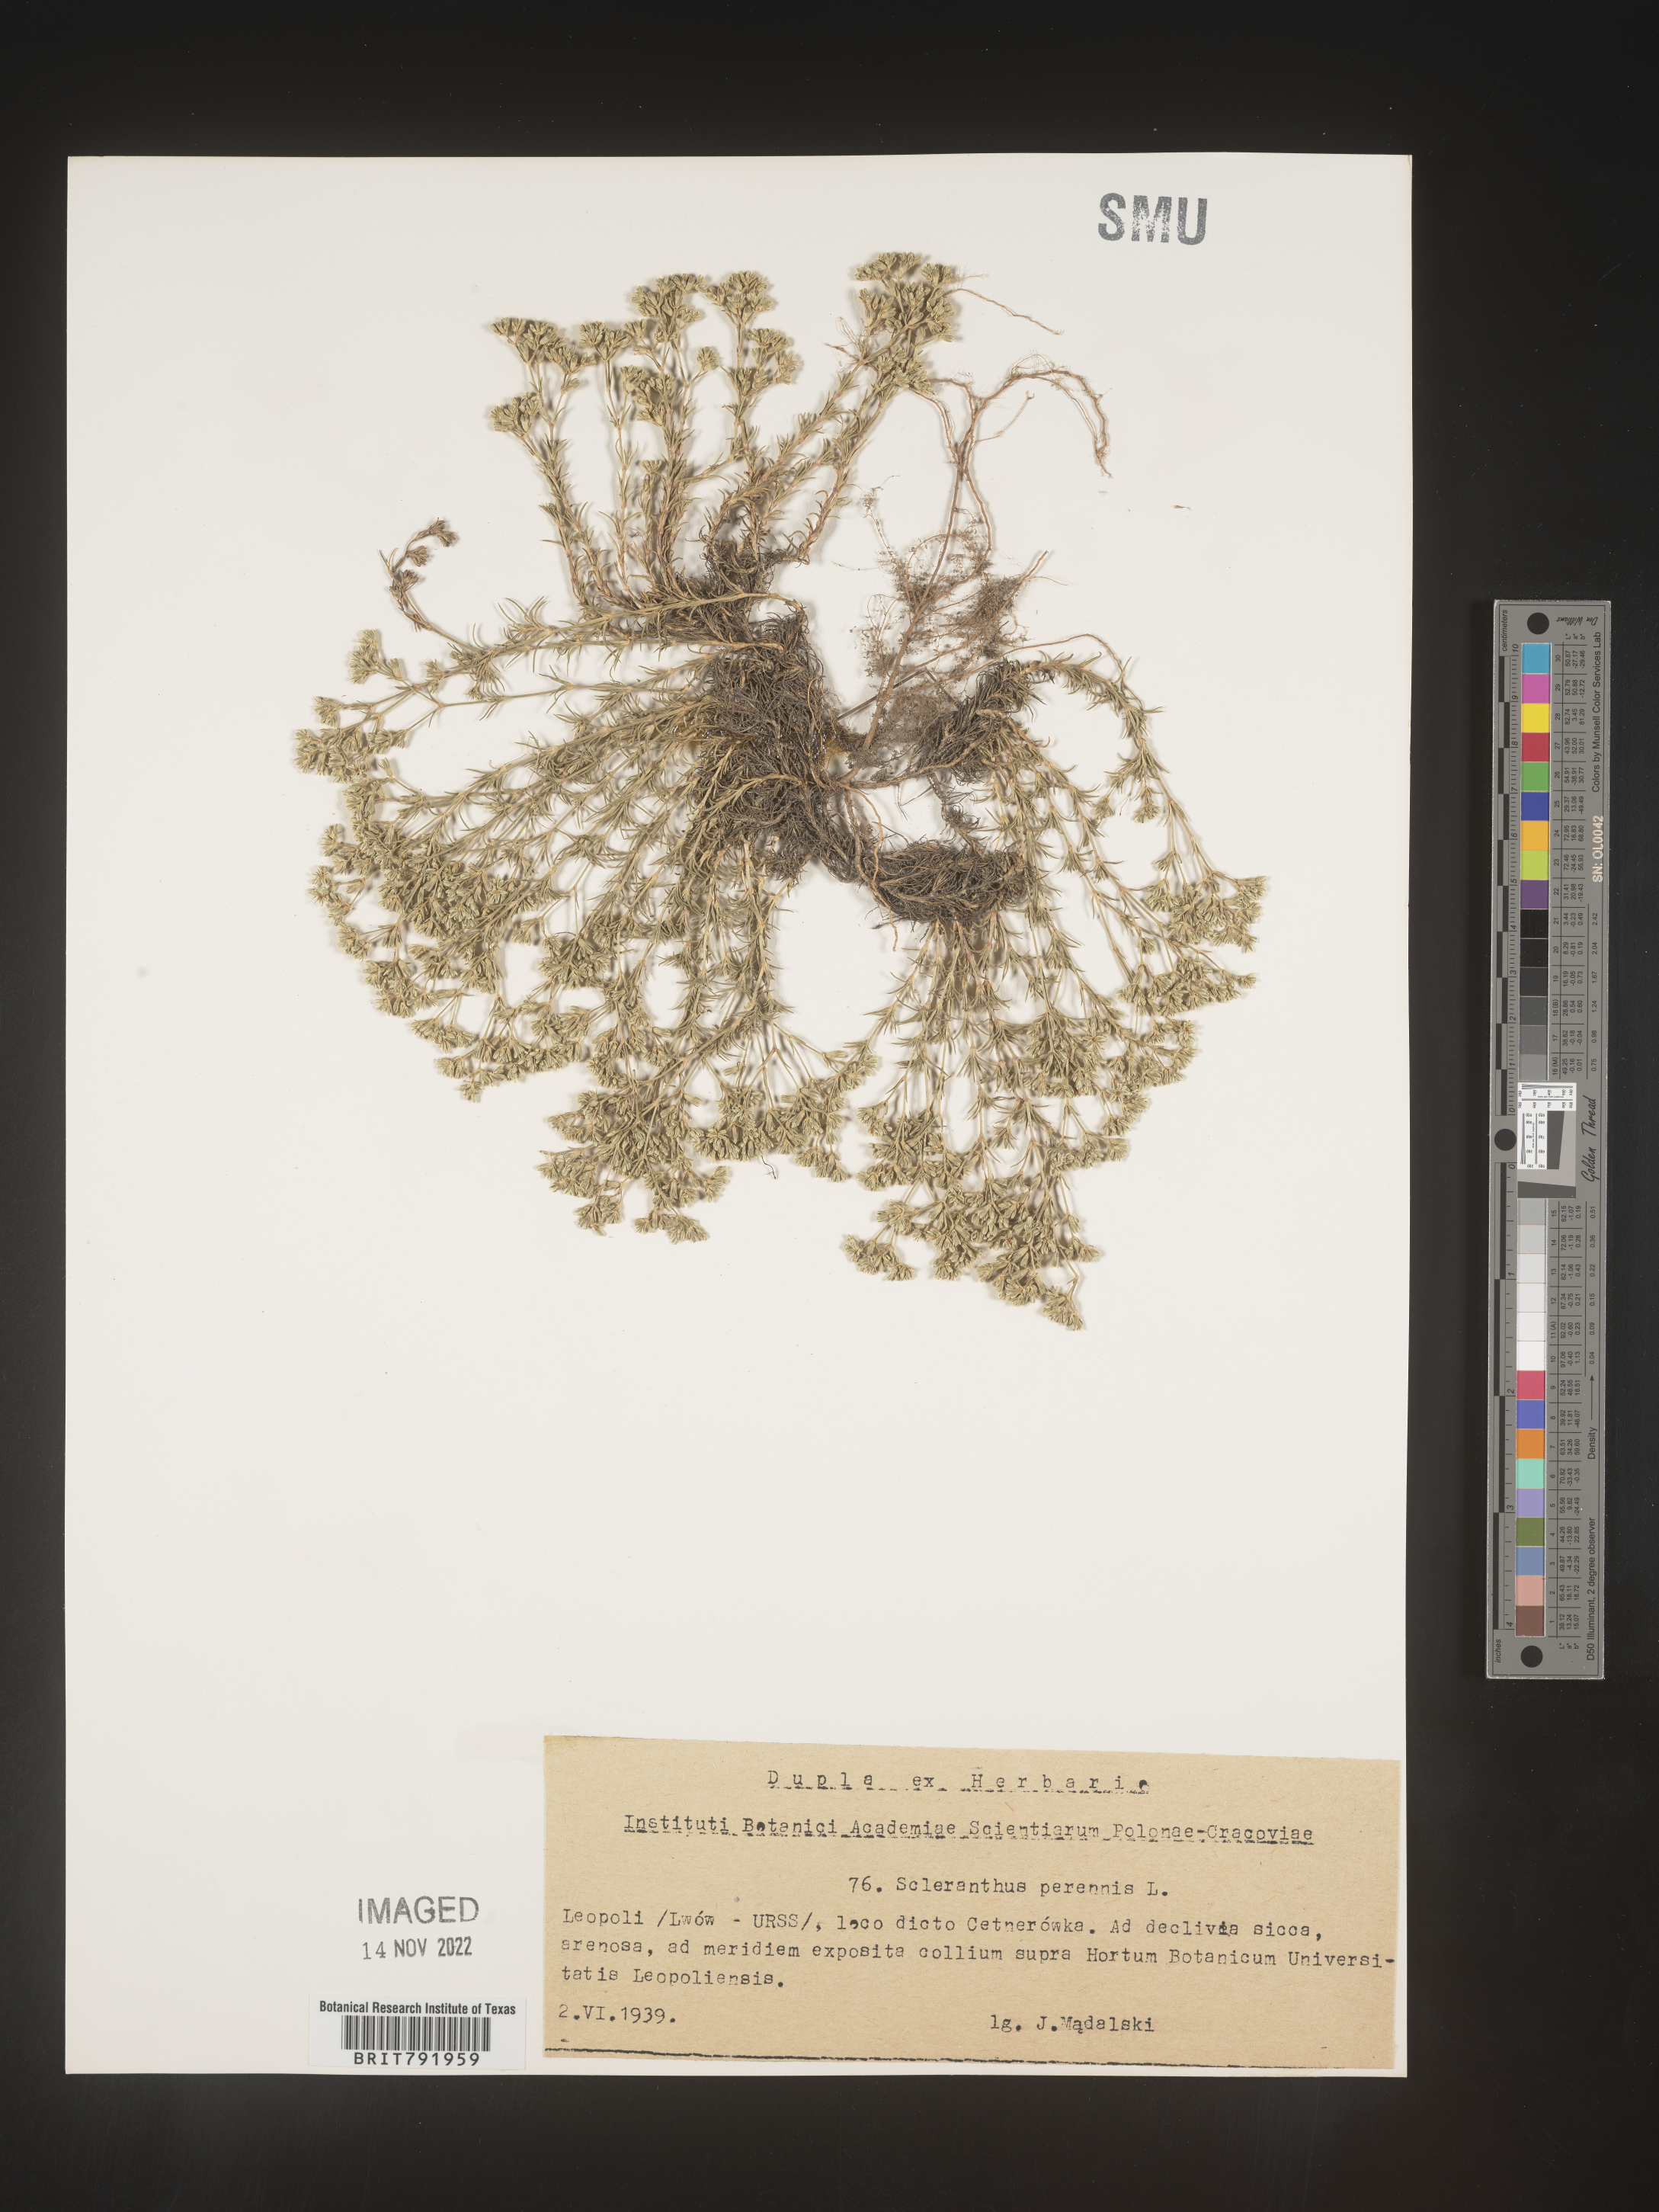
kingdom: Plantae
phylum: Tracheophyta
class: Magnoliopsida
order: Caryophyllales
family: Caryophyllaceae
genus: Scleranthus
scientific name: Scleranthus
